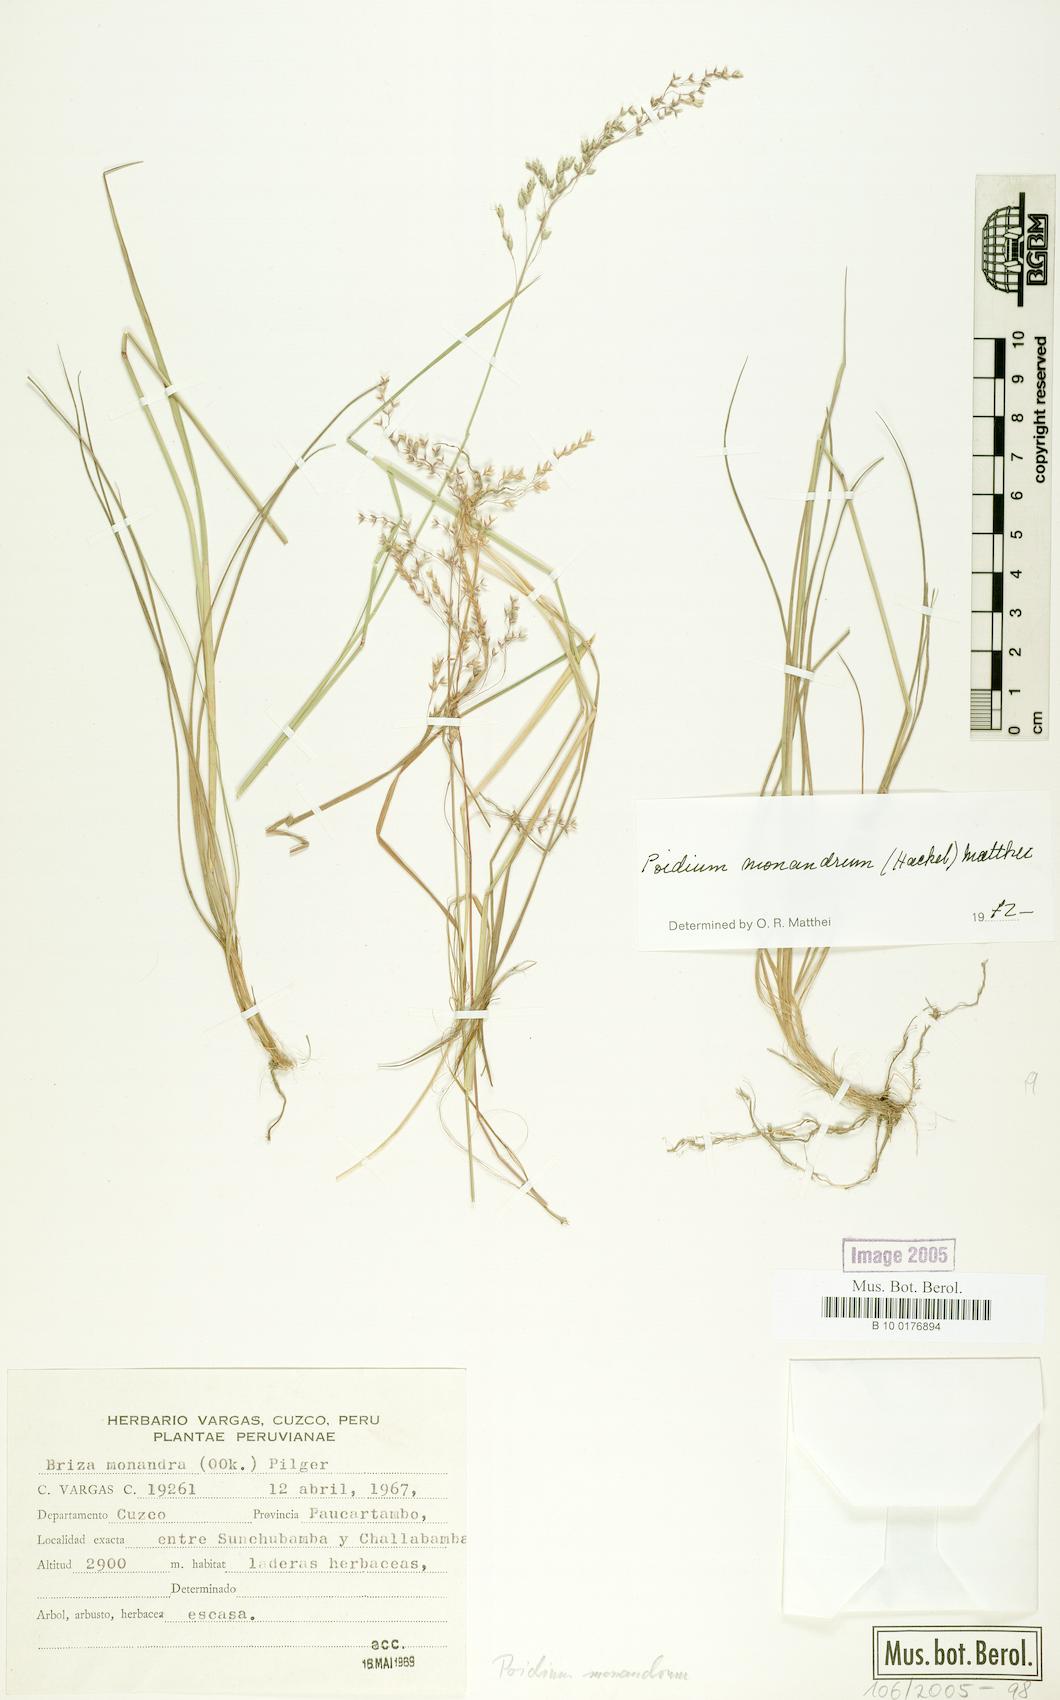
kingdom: Plantae
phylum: Tracheophyta
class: Liliopsida
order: Poales
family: Poaceae
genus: Poidium
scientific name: Poidium monandrum
